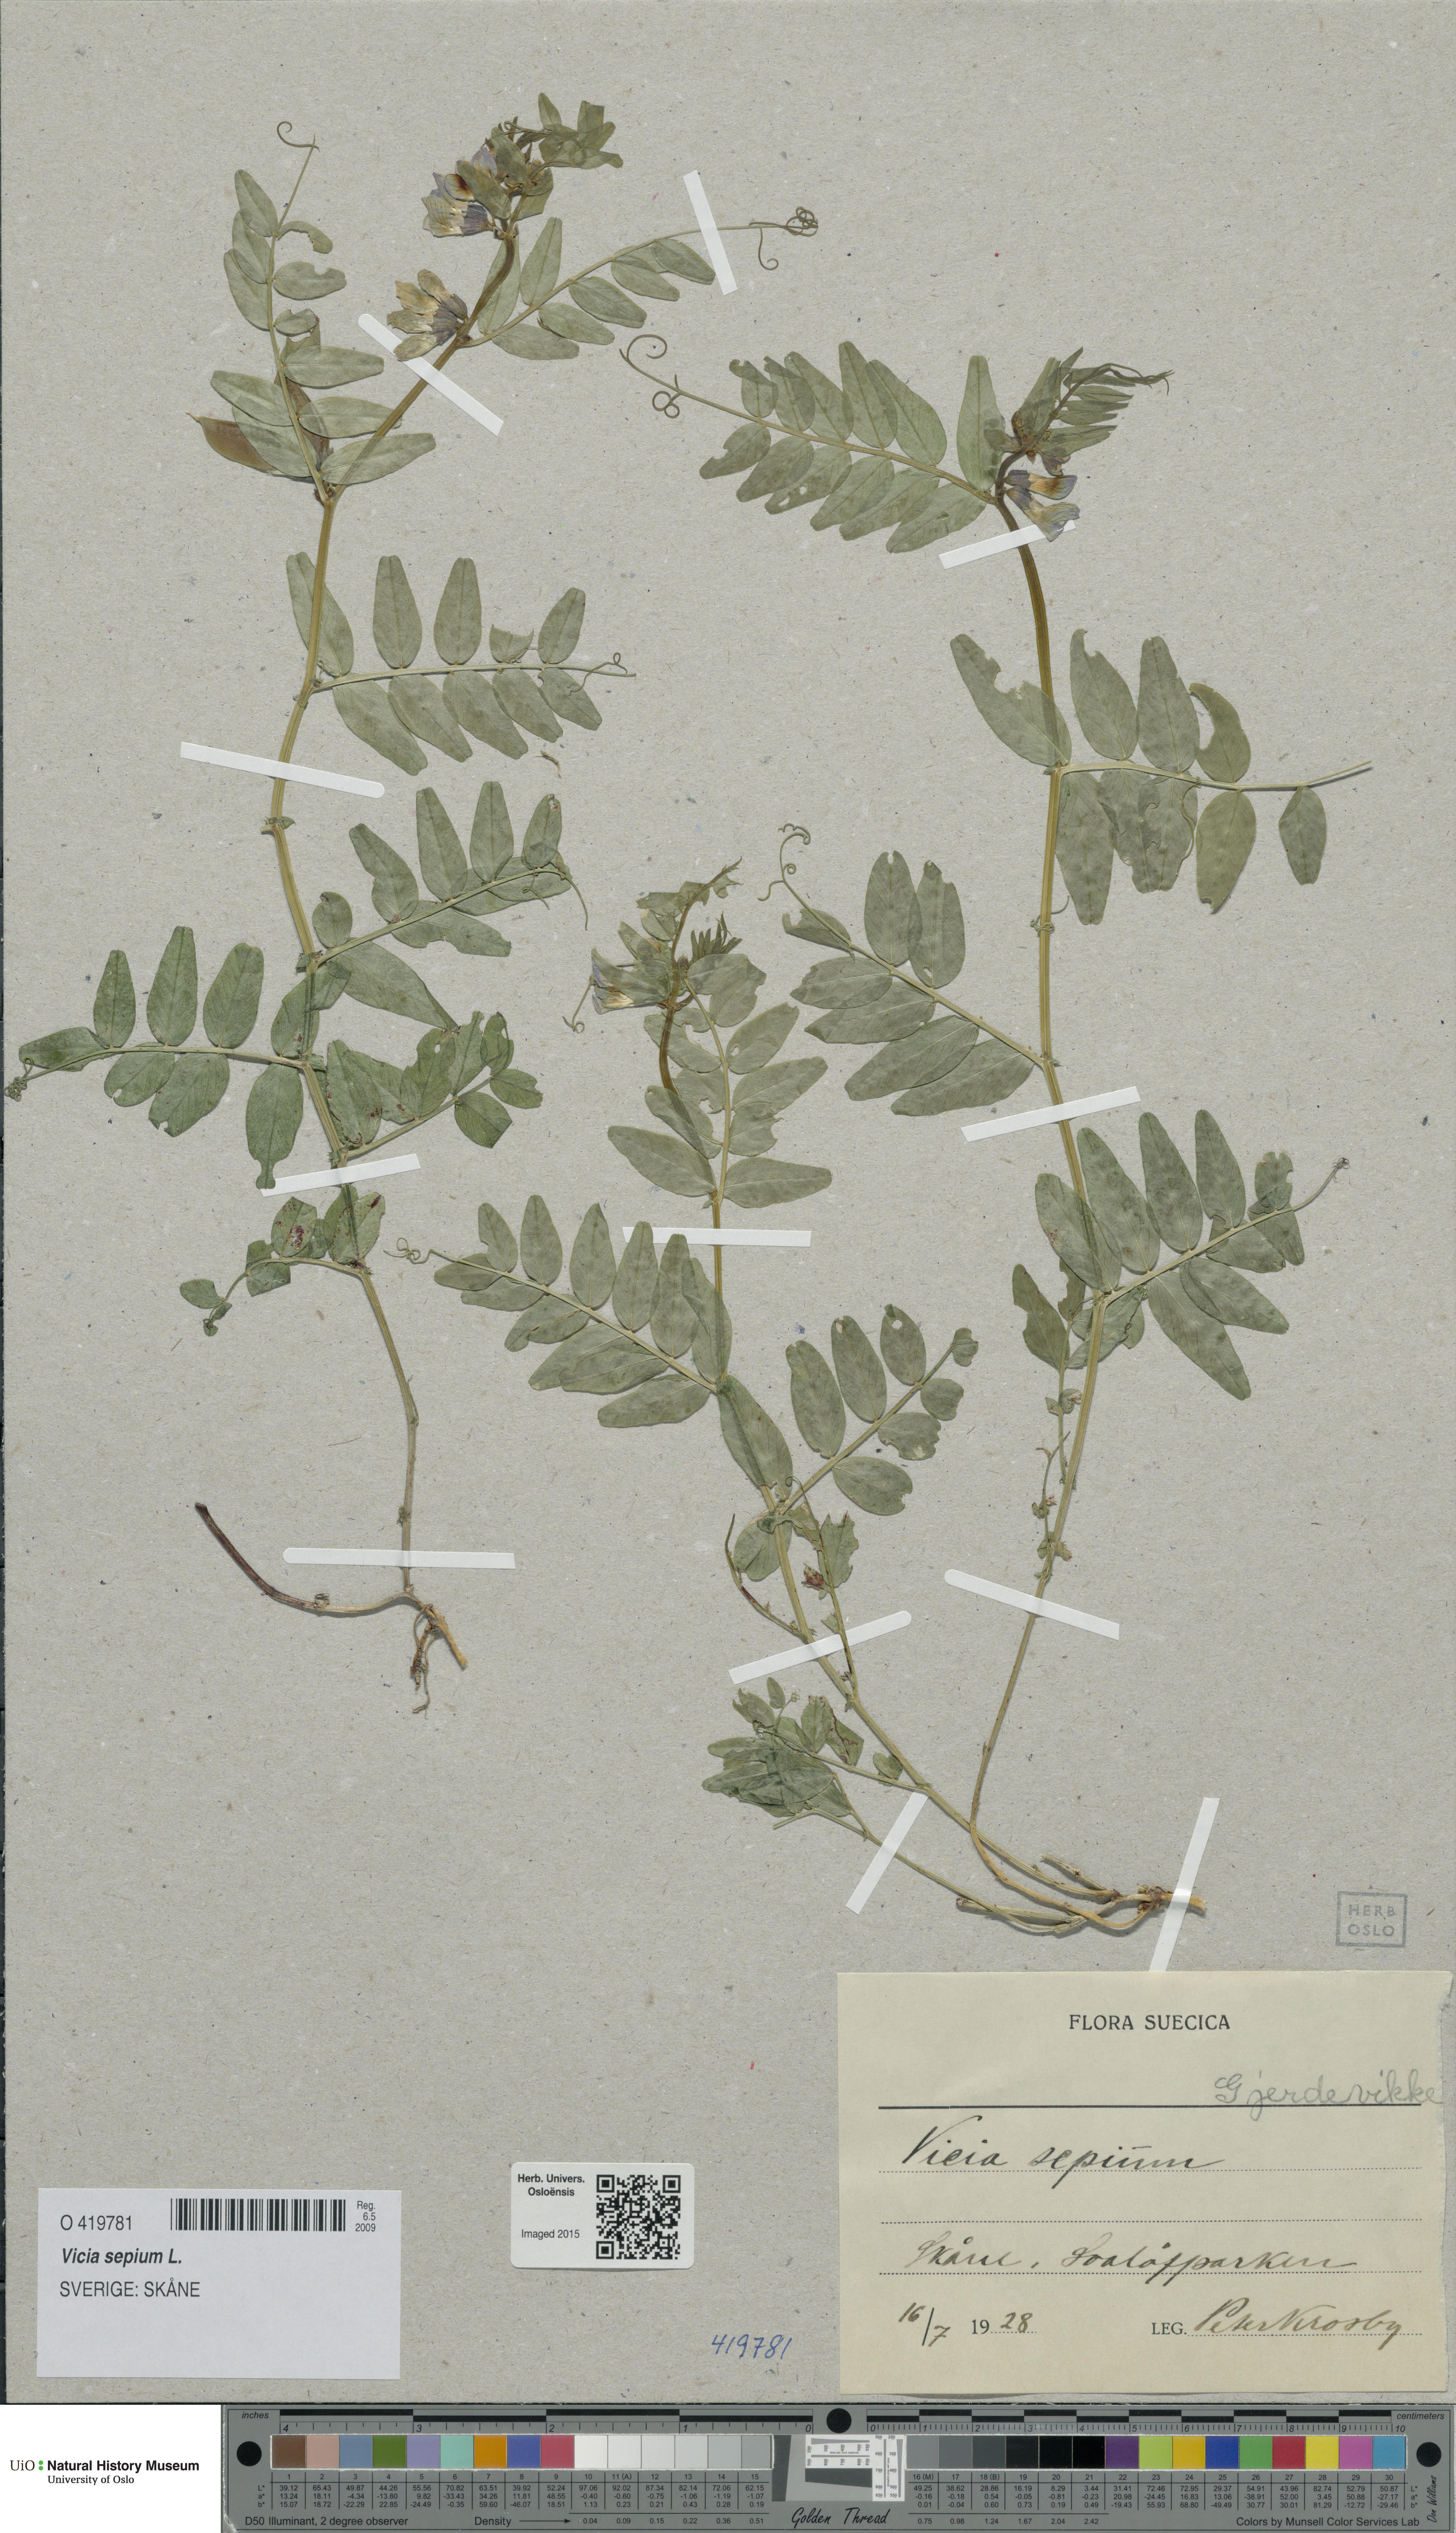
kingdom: Plantae
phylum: Tracheophyta
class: Magnoliopsida
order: Fabales
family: Fabaceae
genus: Vicia
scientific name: Vicia sepium
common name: Bush vetch
